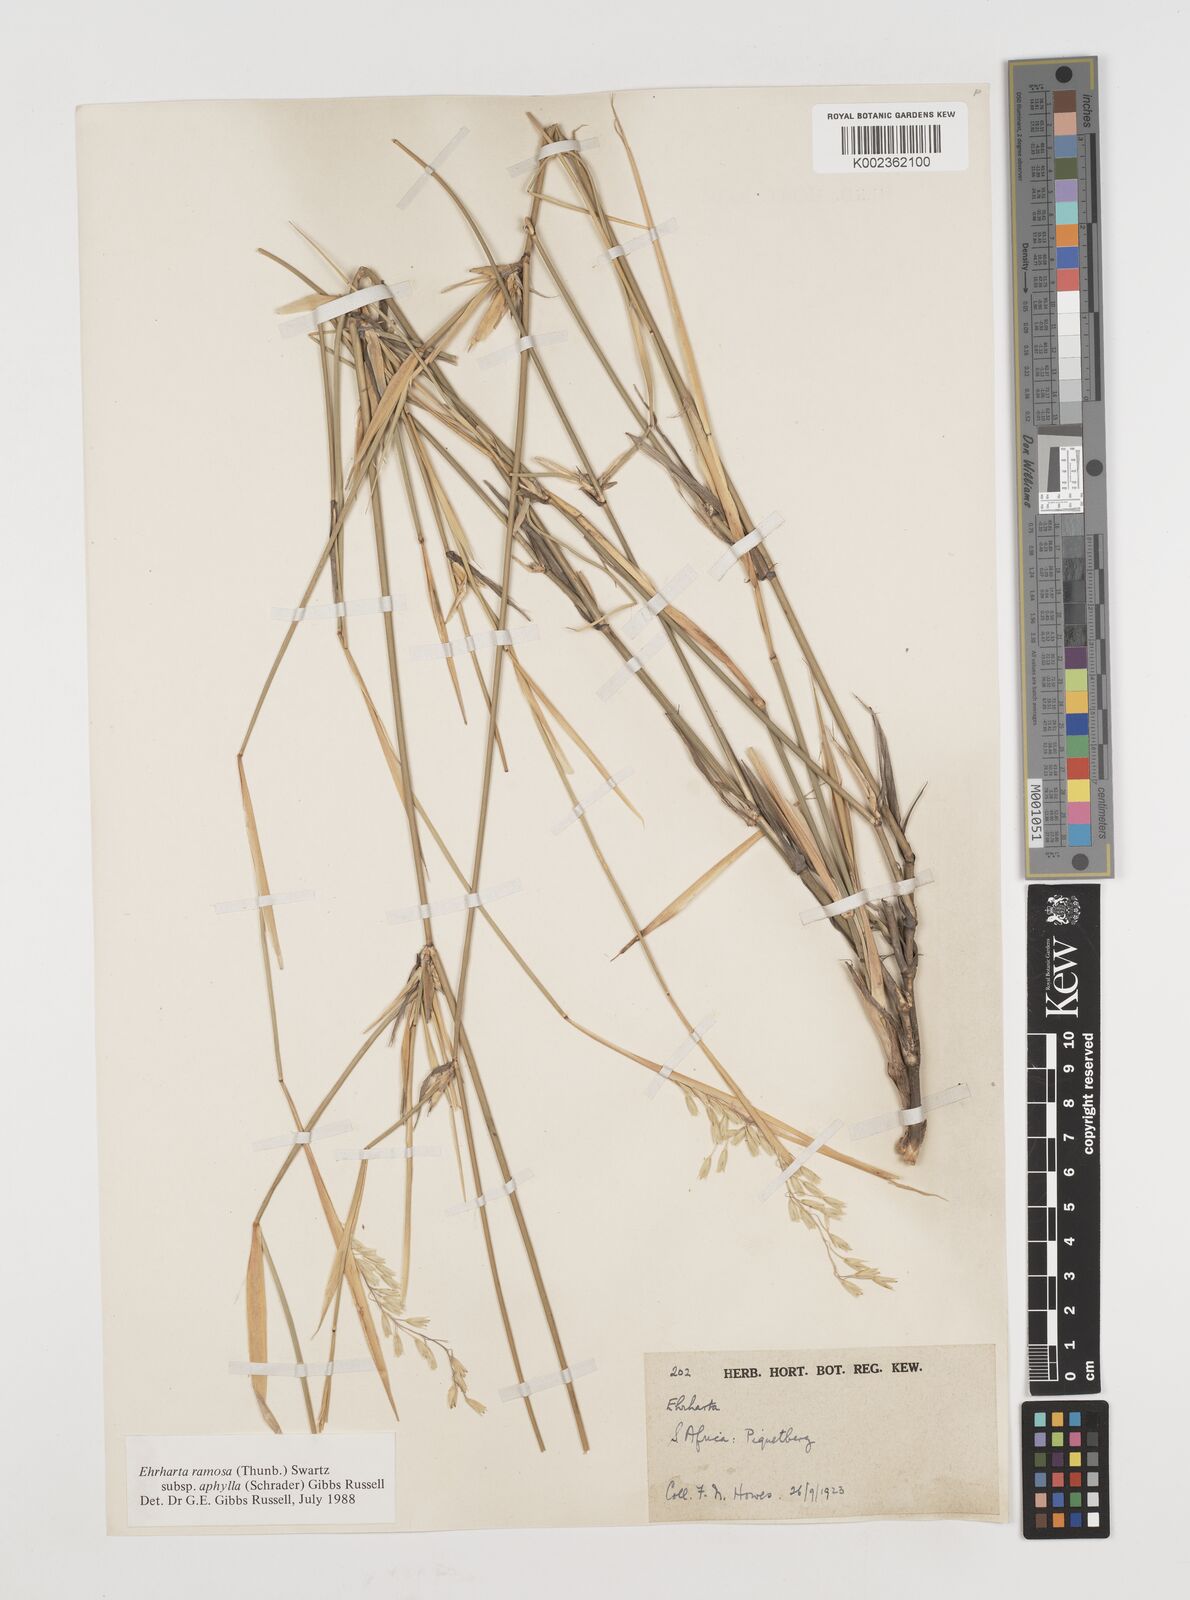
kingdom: Plantae
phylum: Tracheophyta
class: Liliopsida
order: Poales
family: Poaceae
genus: Ehrharta
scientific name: Ehrharta digyna
